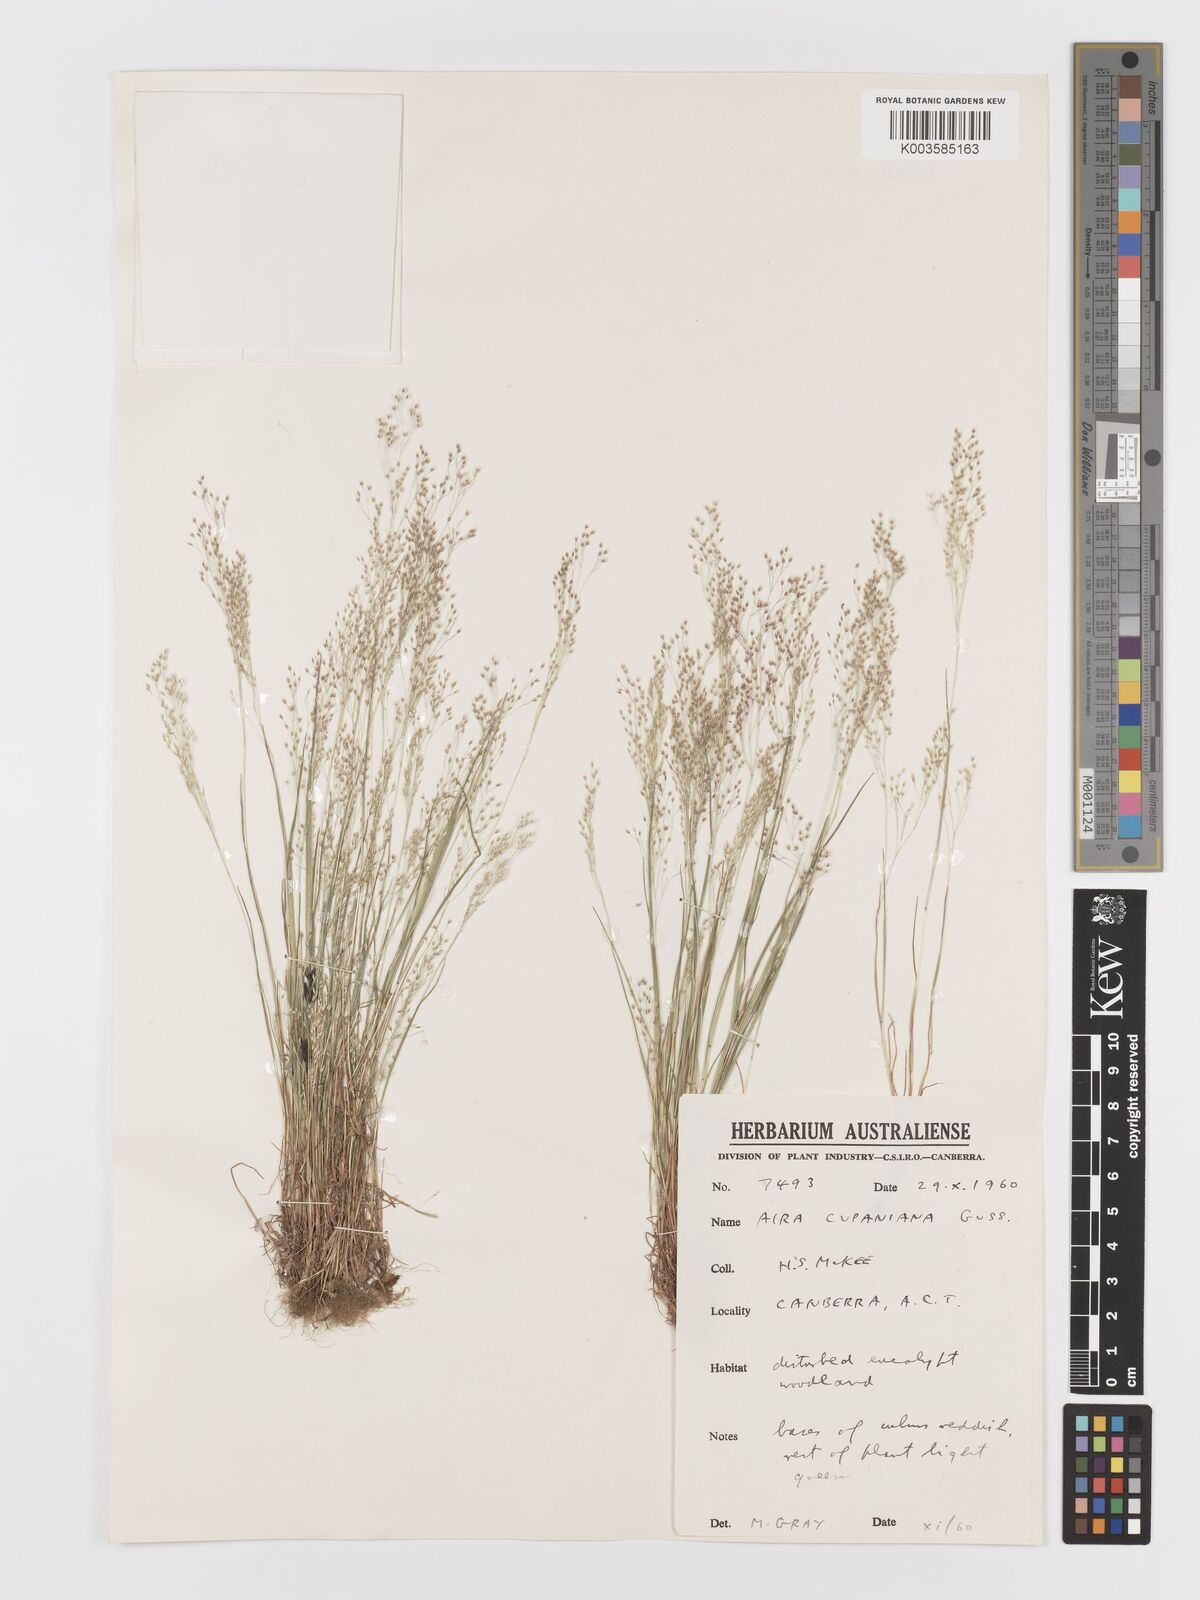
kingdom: Plantae
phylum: Tracheophyta
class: Liliopsida
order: Poales
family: Poaceae
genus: Aira
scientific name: Aira elegans
